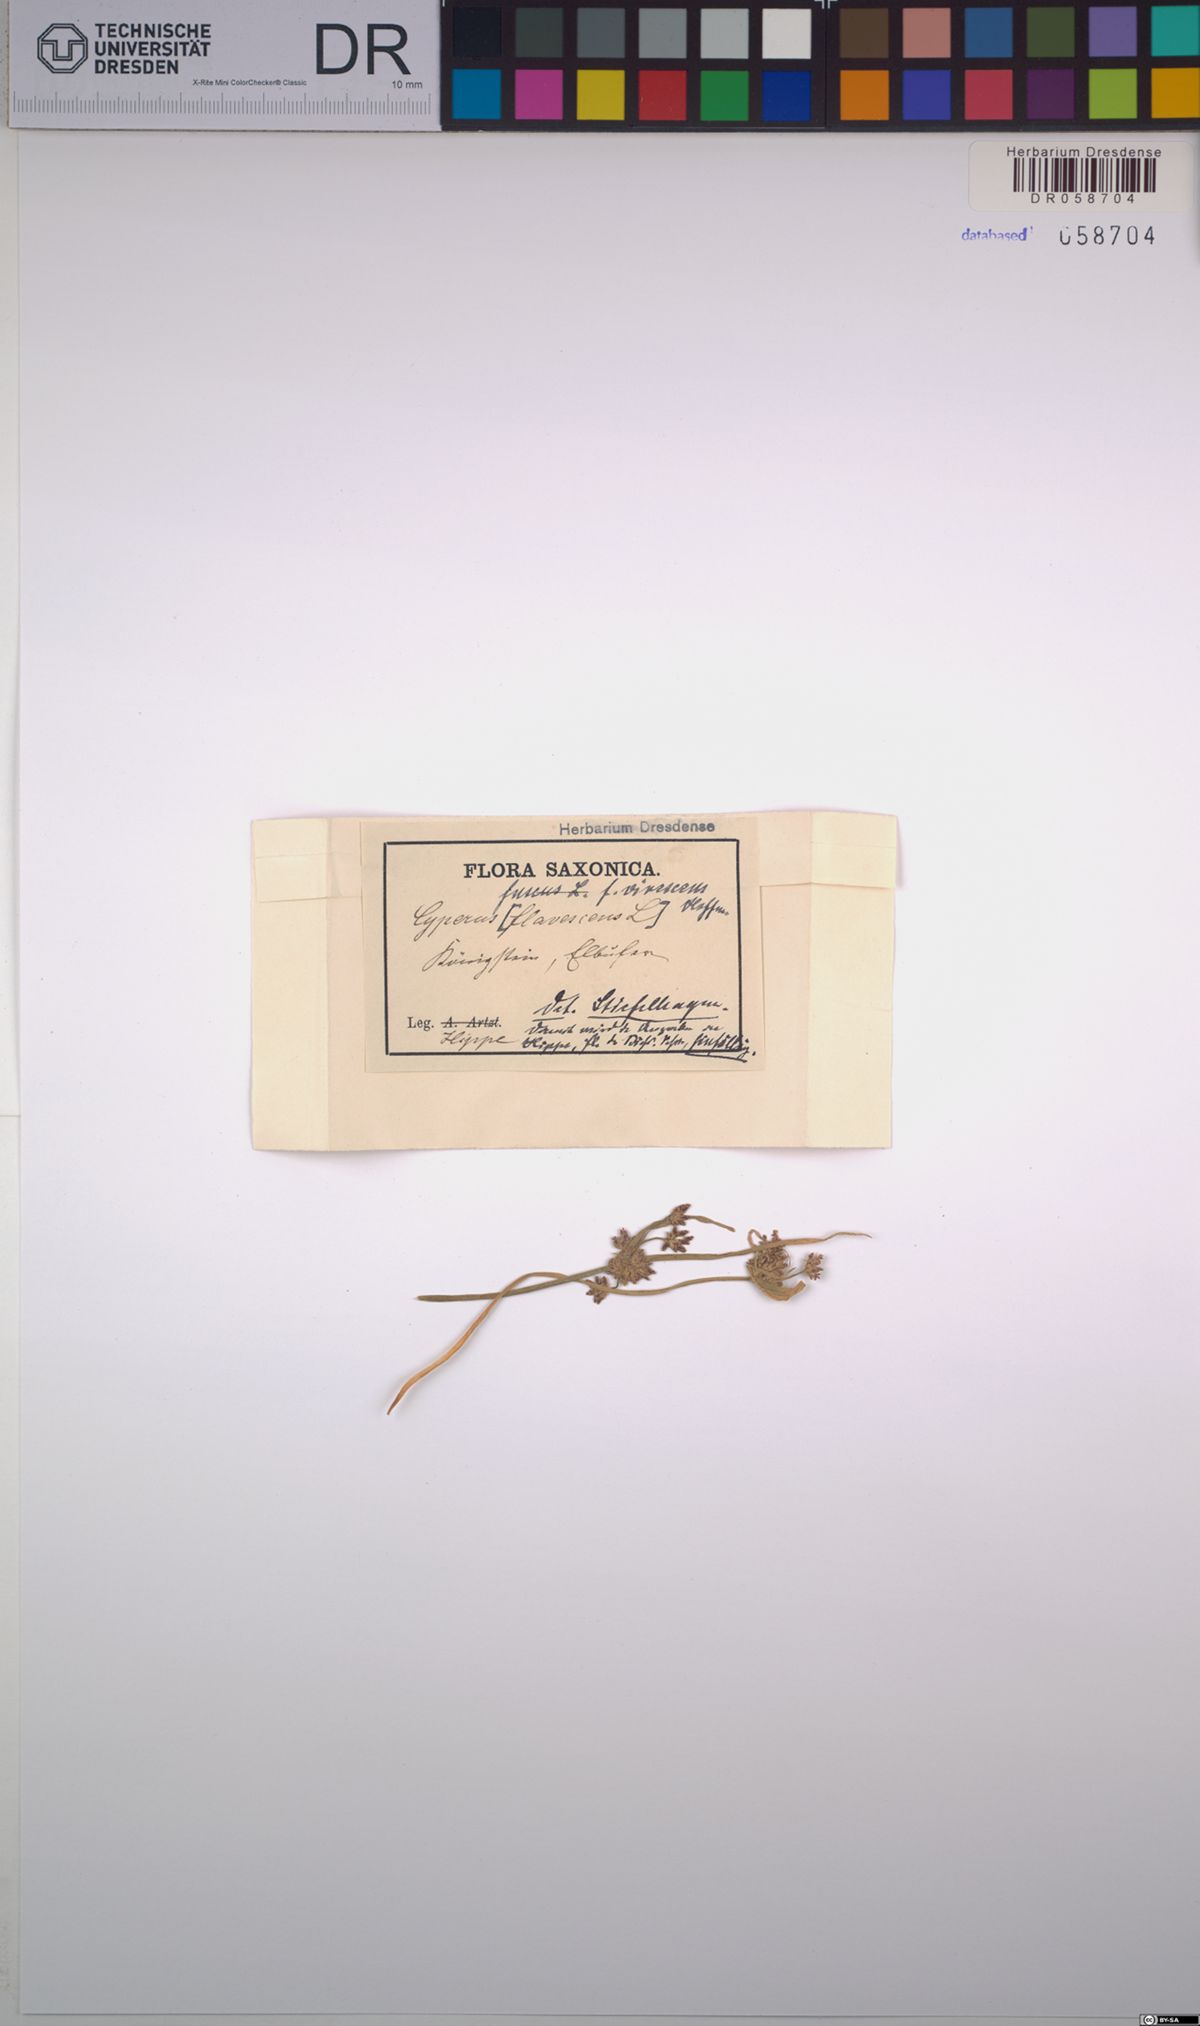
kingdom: Plantae
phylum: Tracheophyta
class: Liliopsida
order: Poales
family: Cyperaceae
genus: Cyperus
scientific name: Cyperus fuscus
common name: Brown galingale
